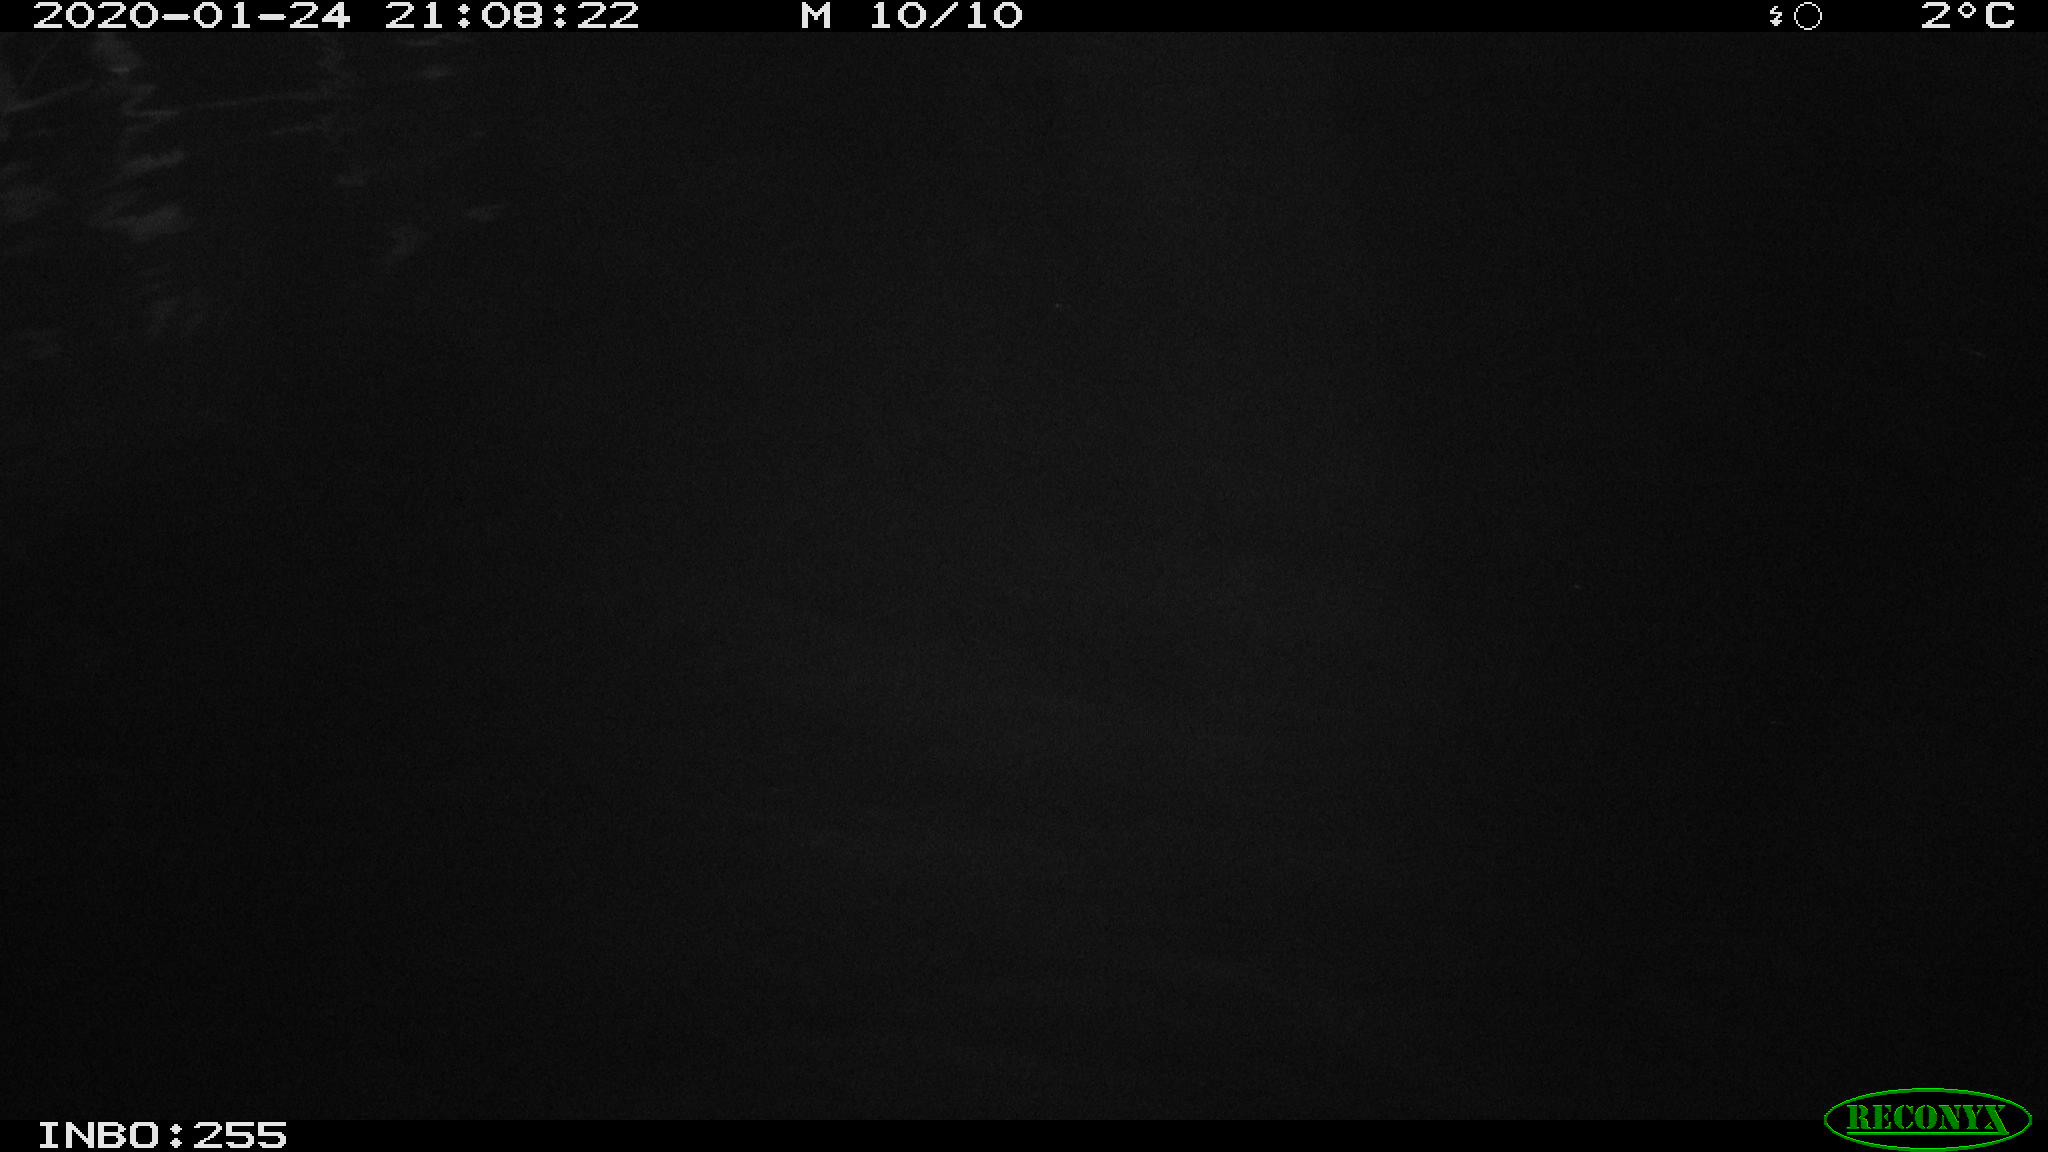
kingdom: Animalia
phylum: Chordata
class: Mammalia
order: Rodentia
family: Cricetidae
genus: Ondatra
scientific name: Ondatra zibethicus
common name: Muskrat
